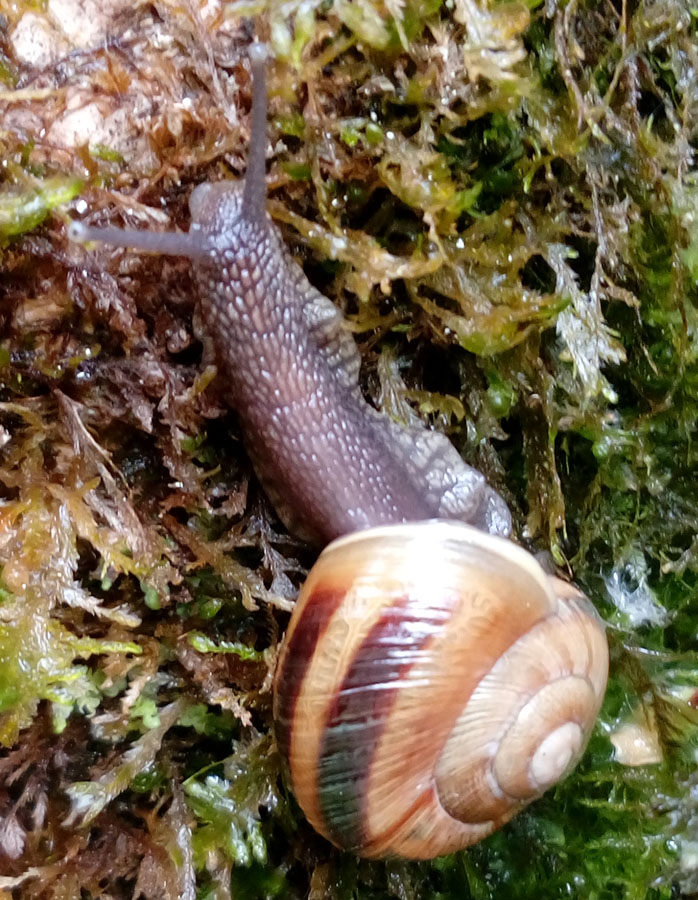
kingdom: Animalia
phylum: Mollusca
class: Gastropoda
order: Stylommatophora
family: Helicidae
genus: Helix
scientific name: Helix pomatia
